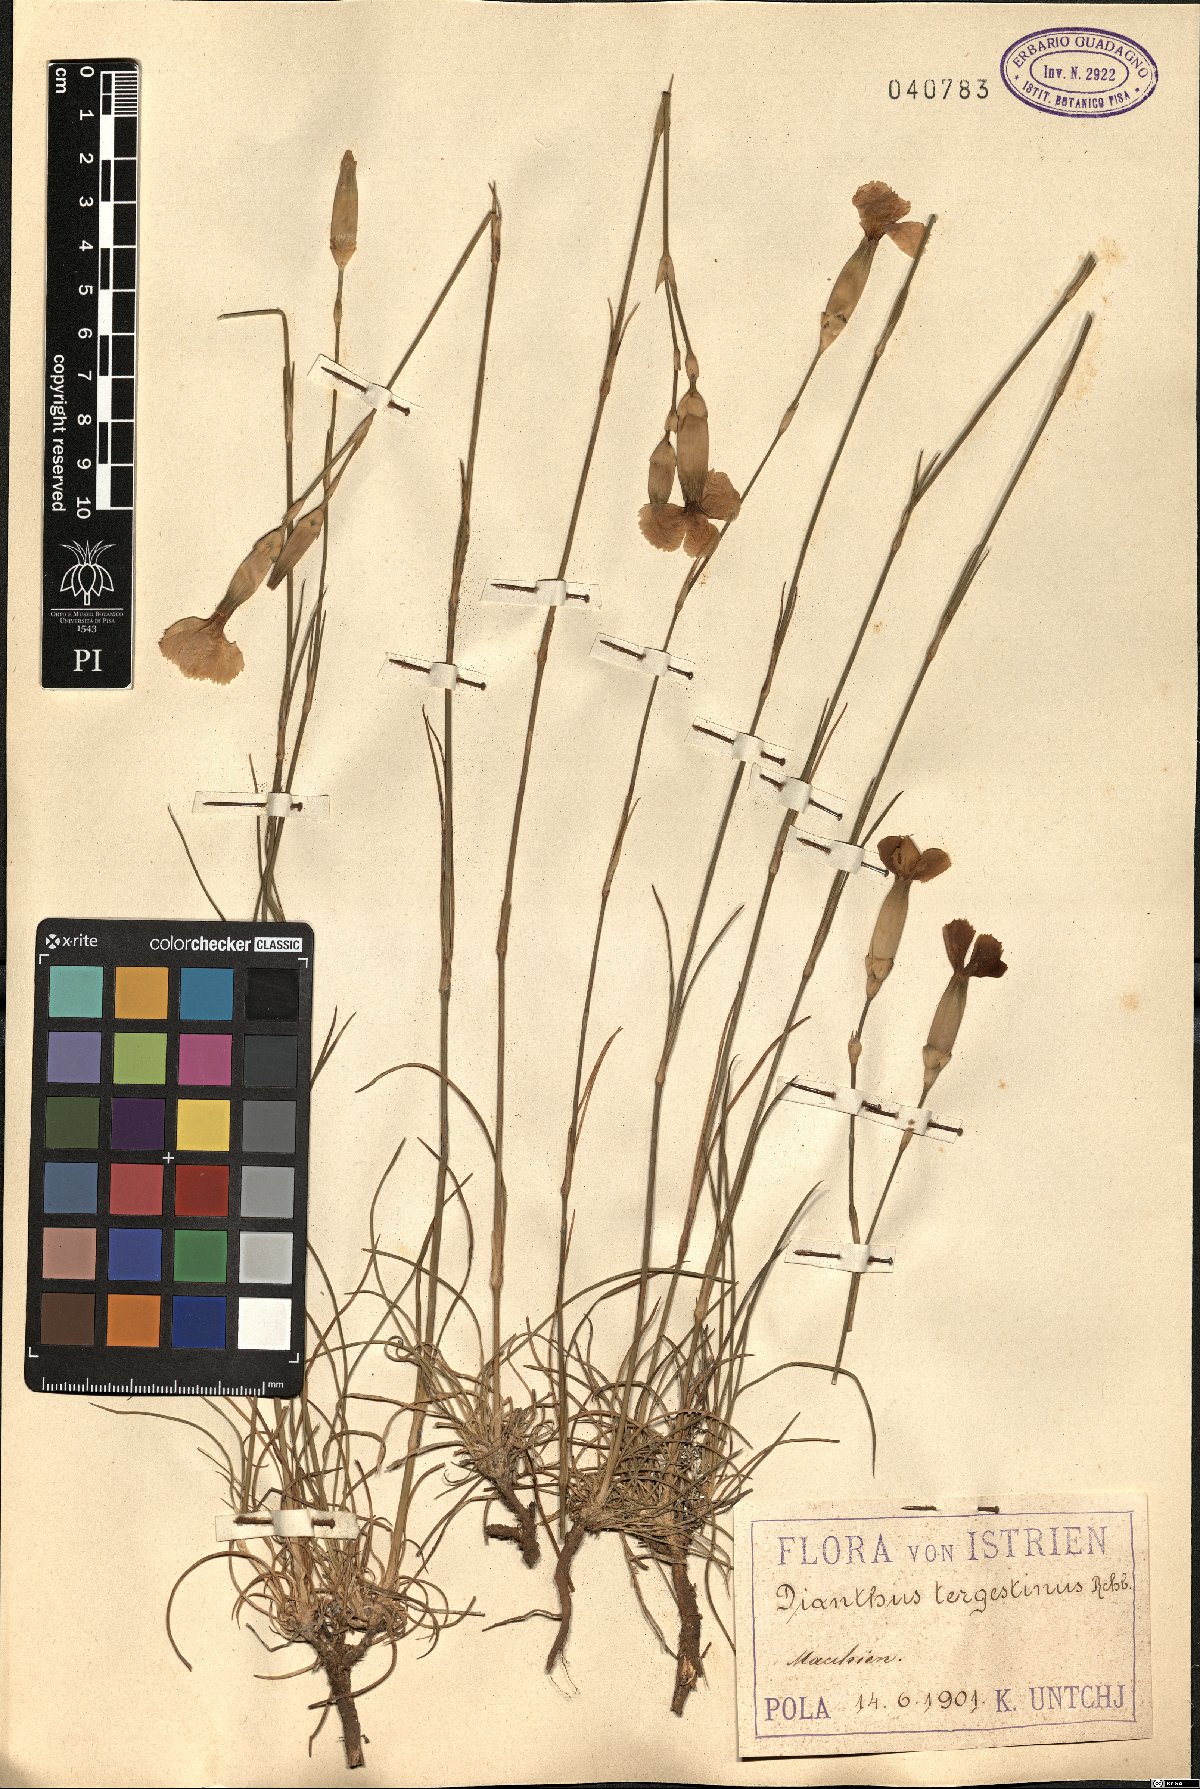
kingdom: Plantae
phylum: Tracheophyta
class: Magnoliopsida
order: Caryophyllales
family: Caryophyllaceae
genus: Dianthus
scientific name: Dianthus sylvestris
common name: Wood pink
